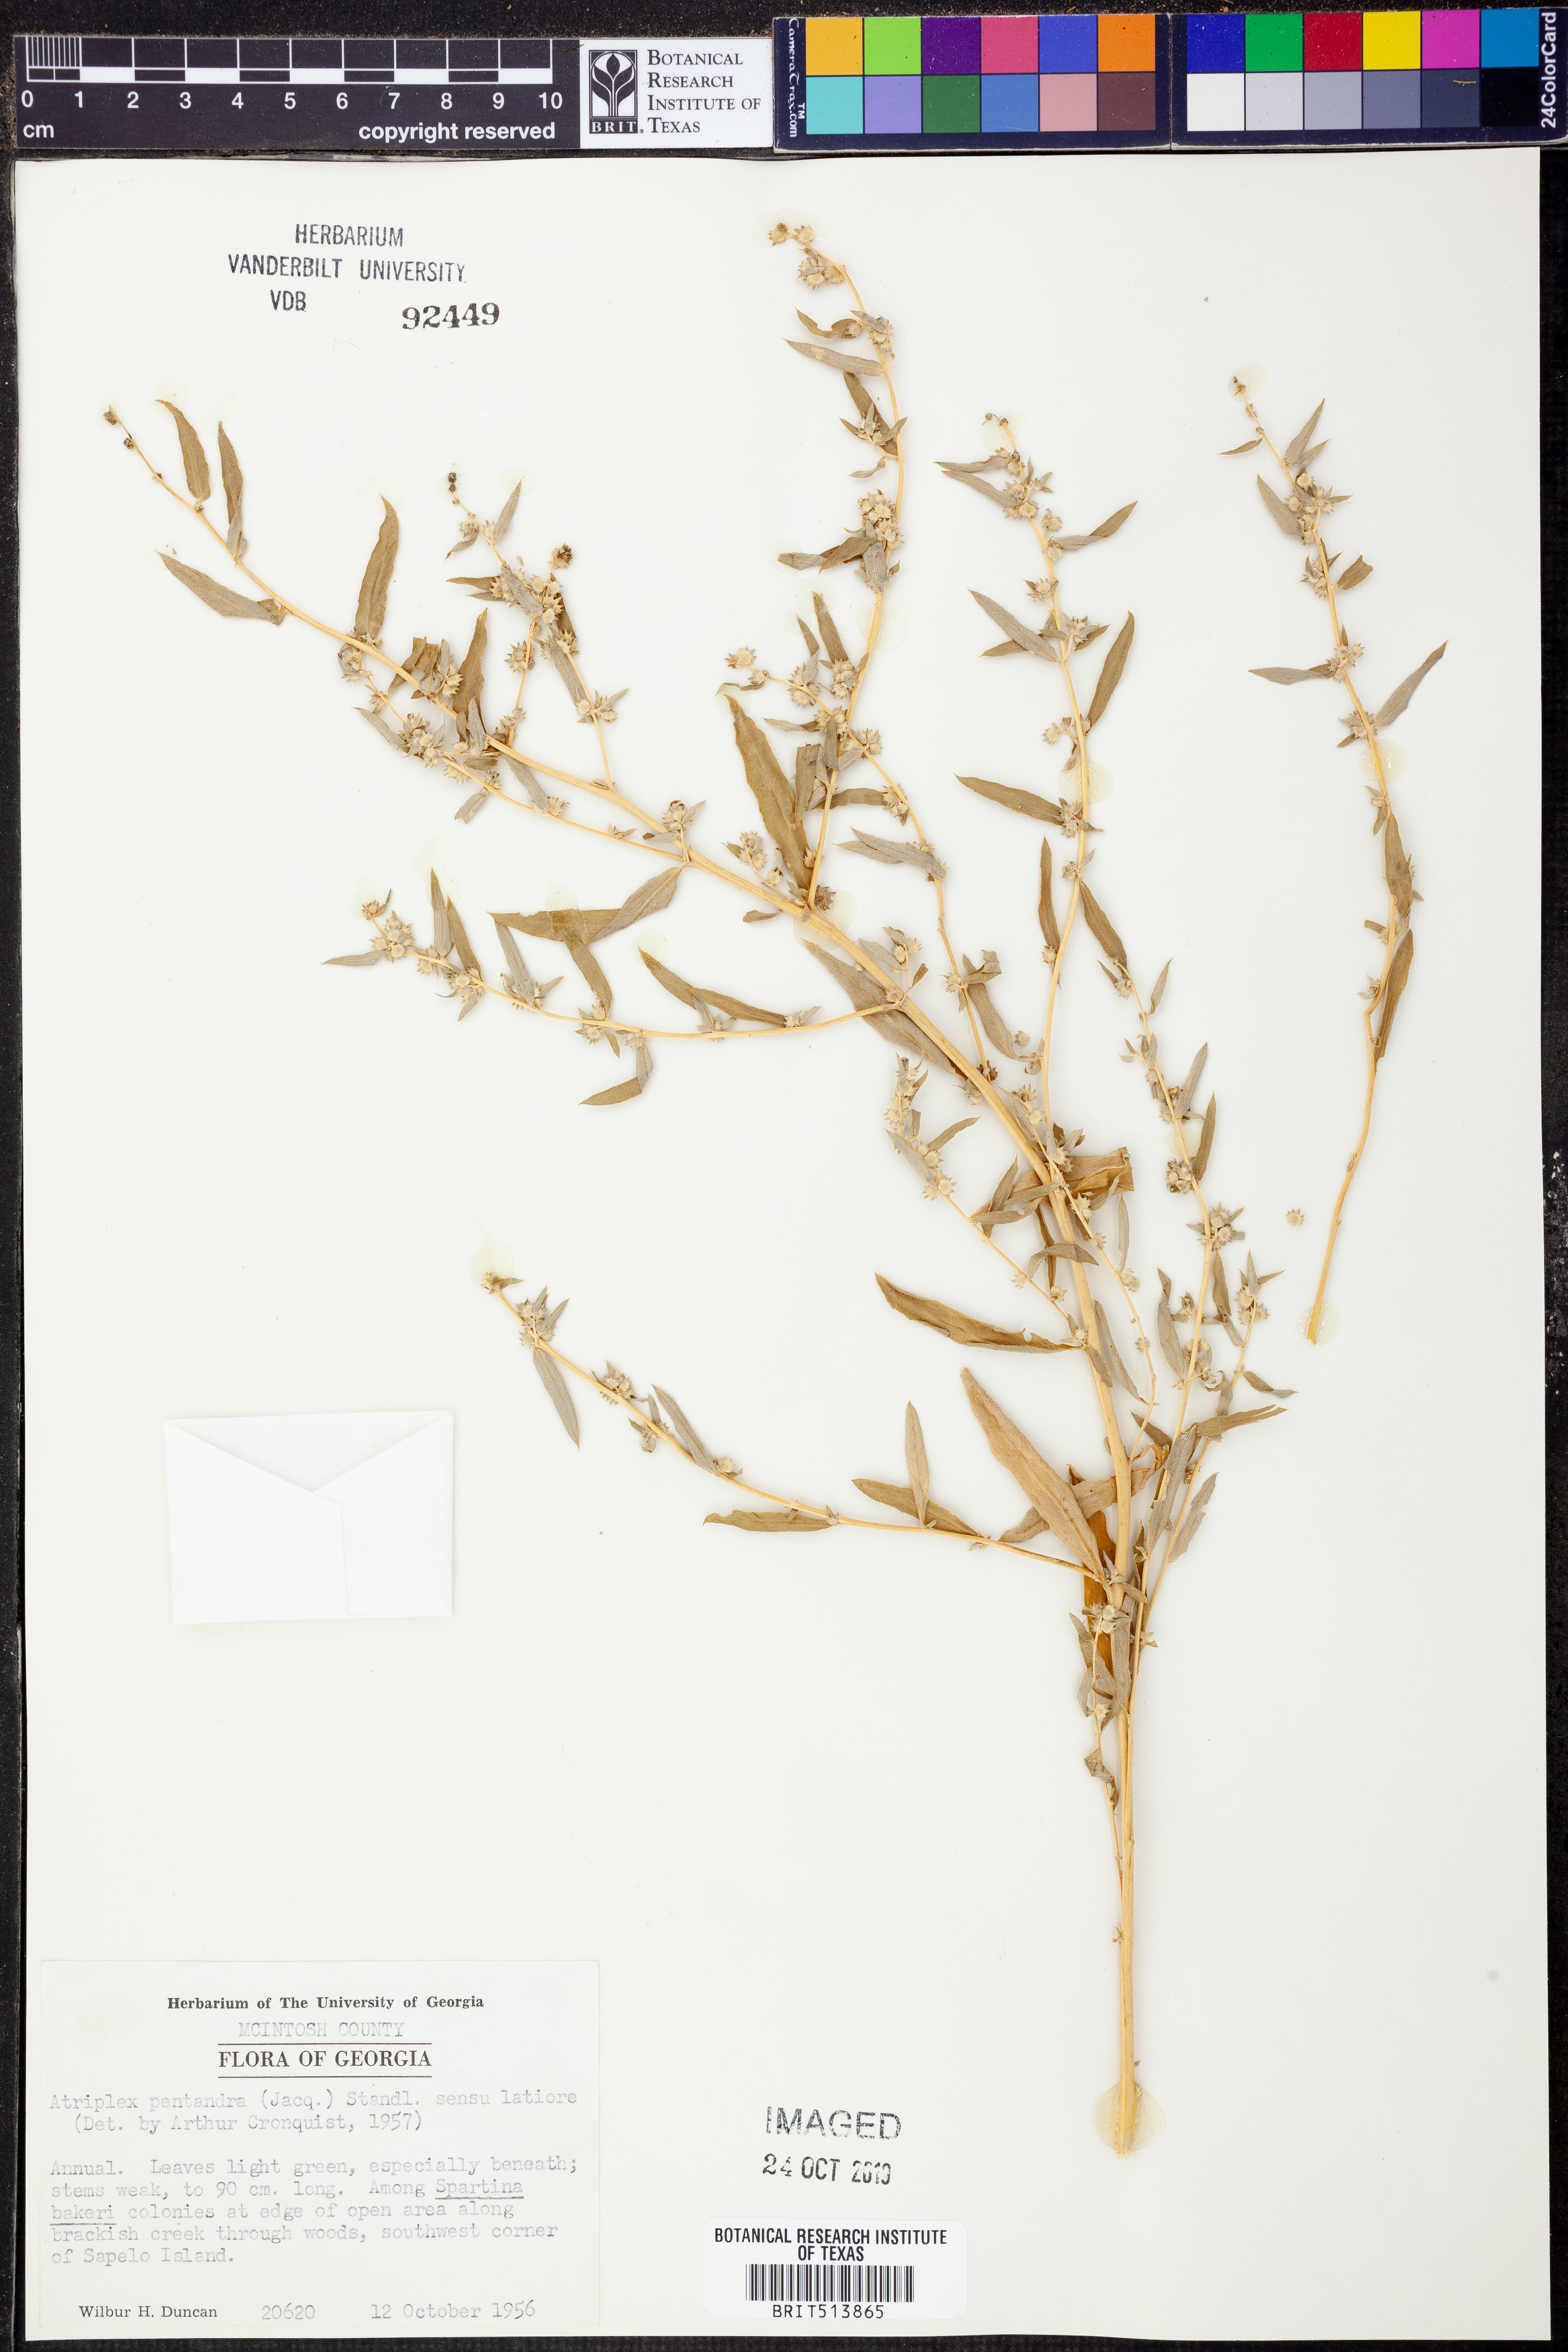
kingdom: Plantae
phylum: Tracheophyta
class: Magnoliopsida
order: Caryophyllales
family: Amaranthaceae
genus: Atriplex
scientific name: Atriplex cristata
